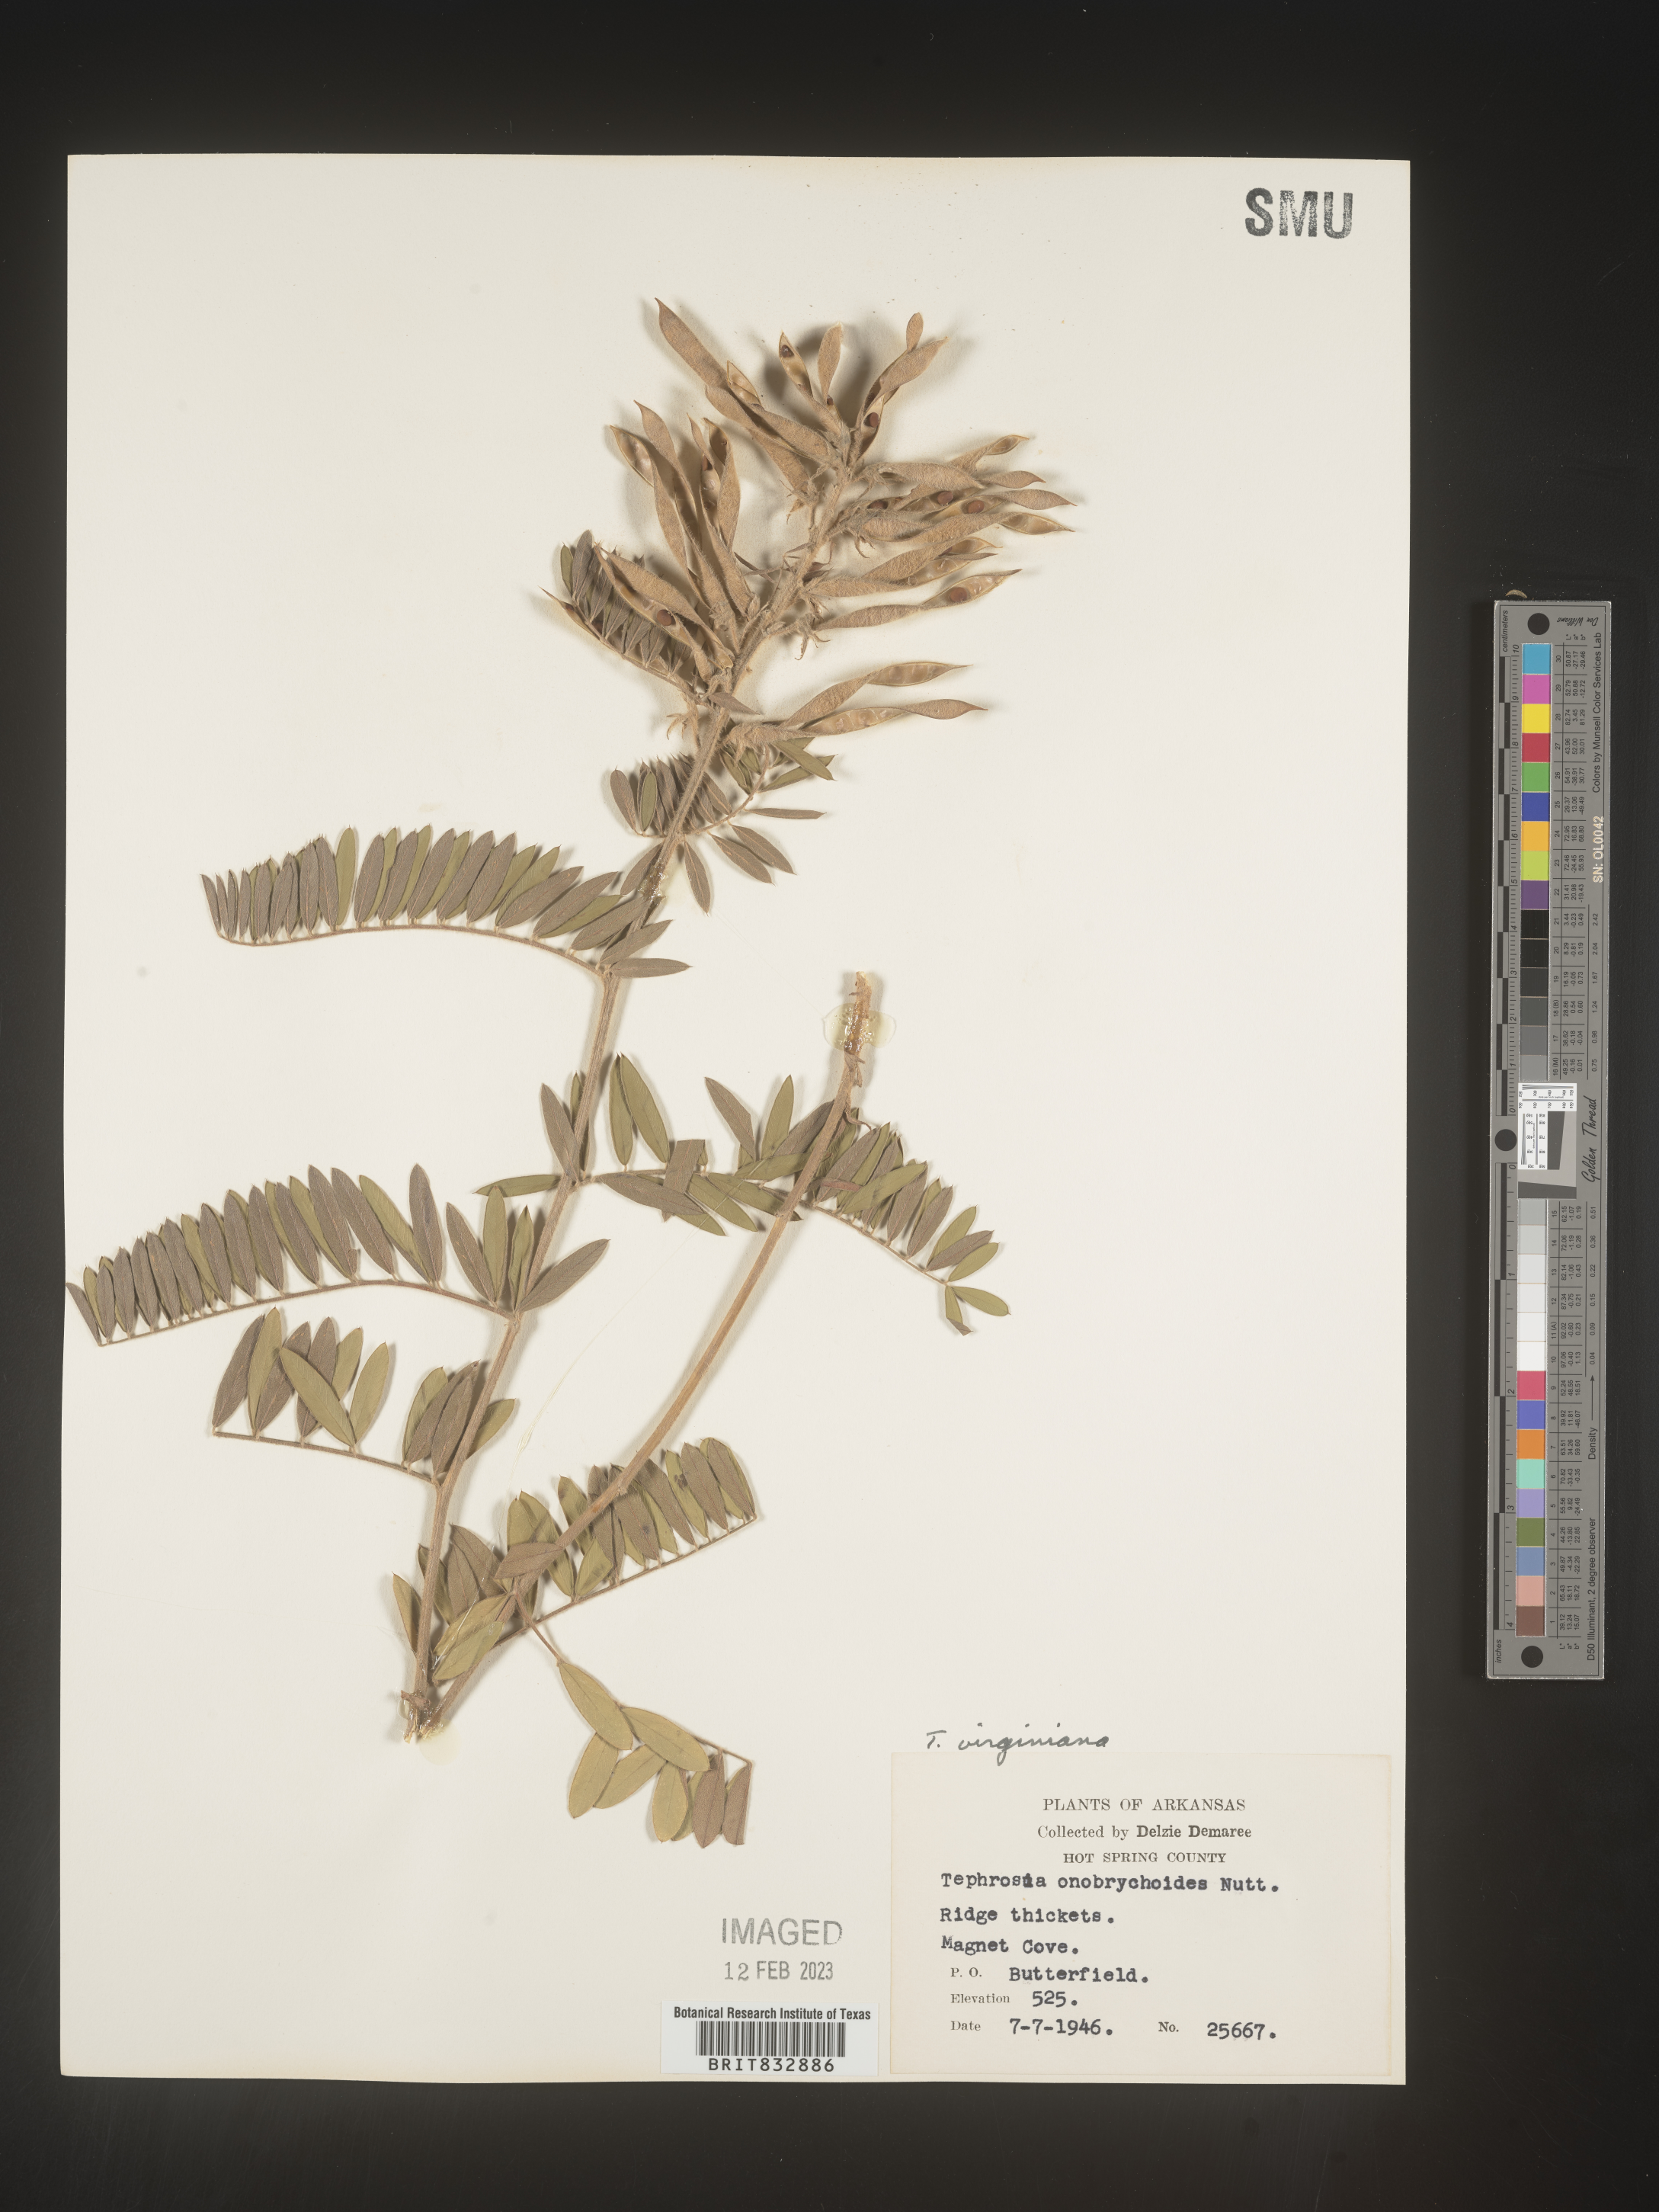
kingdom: Plantae
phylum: Tracheophyta
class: Magnoliopsida
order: Fabales
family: Fabaceae
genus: Tephrosia
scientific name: Tephrosia virginiana
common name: Rabbit-pea
